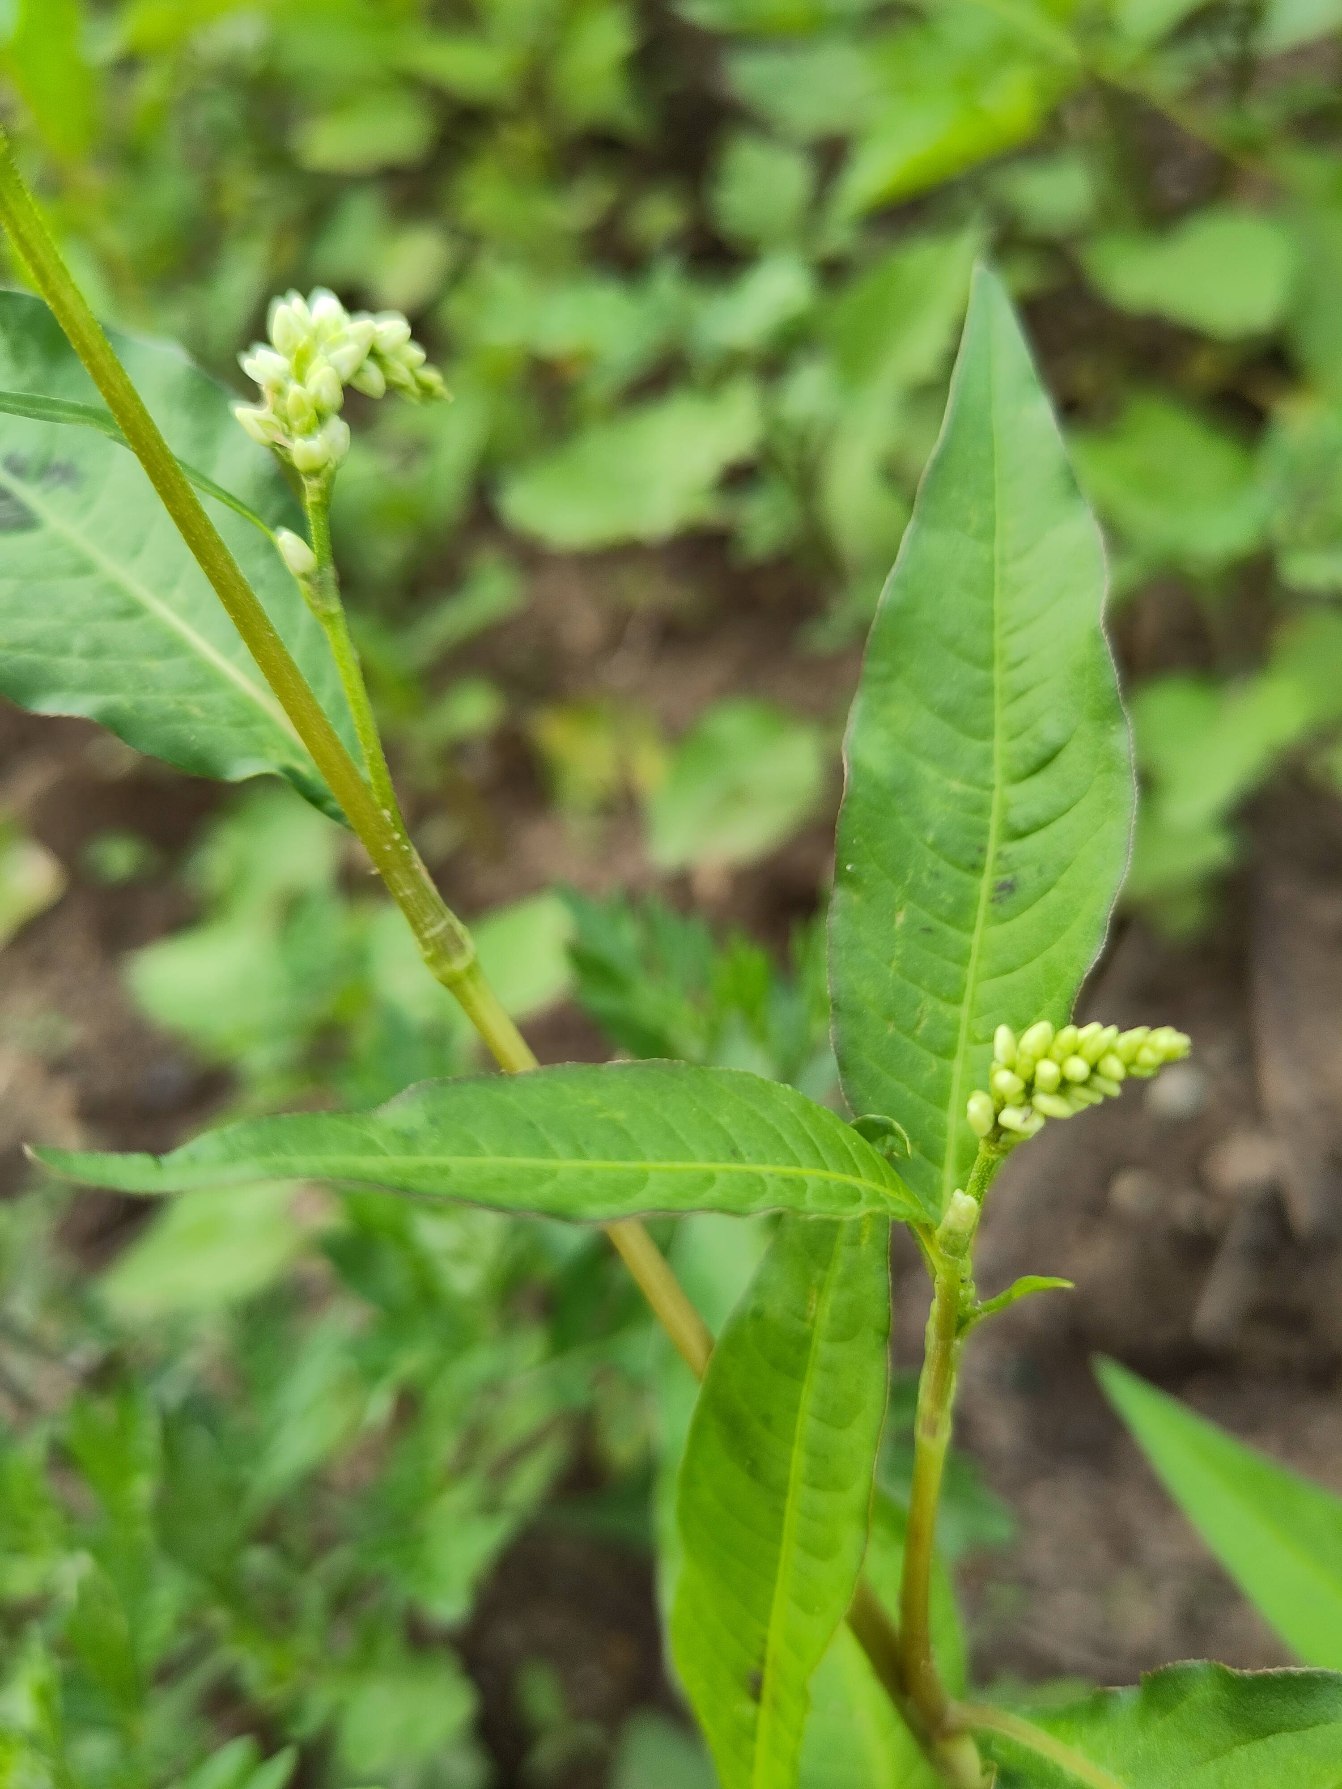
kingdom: Plantae
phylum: Tracheophyta
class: Magnoliopsida
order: Caryophyllales
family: Polygonaceae
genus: Persicaria
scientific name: Persicaria lapathifolia
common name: Knudet pileurt
